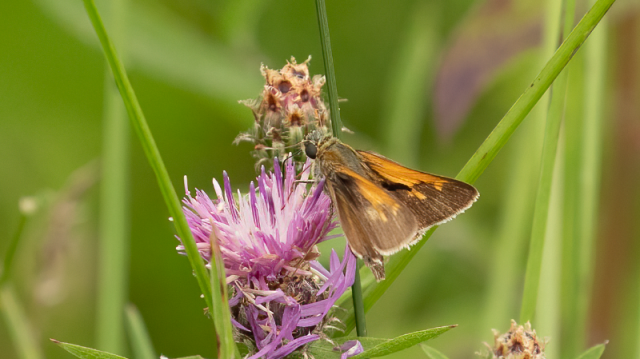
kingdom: Animalia
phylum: Arthropoda
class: Insecta
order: Lepidoptera
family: Hesperiidae
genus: Polites
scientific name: Polites
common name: Crossline Skipper
